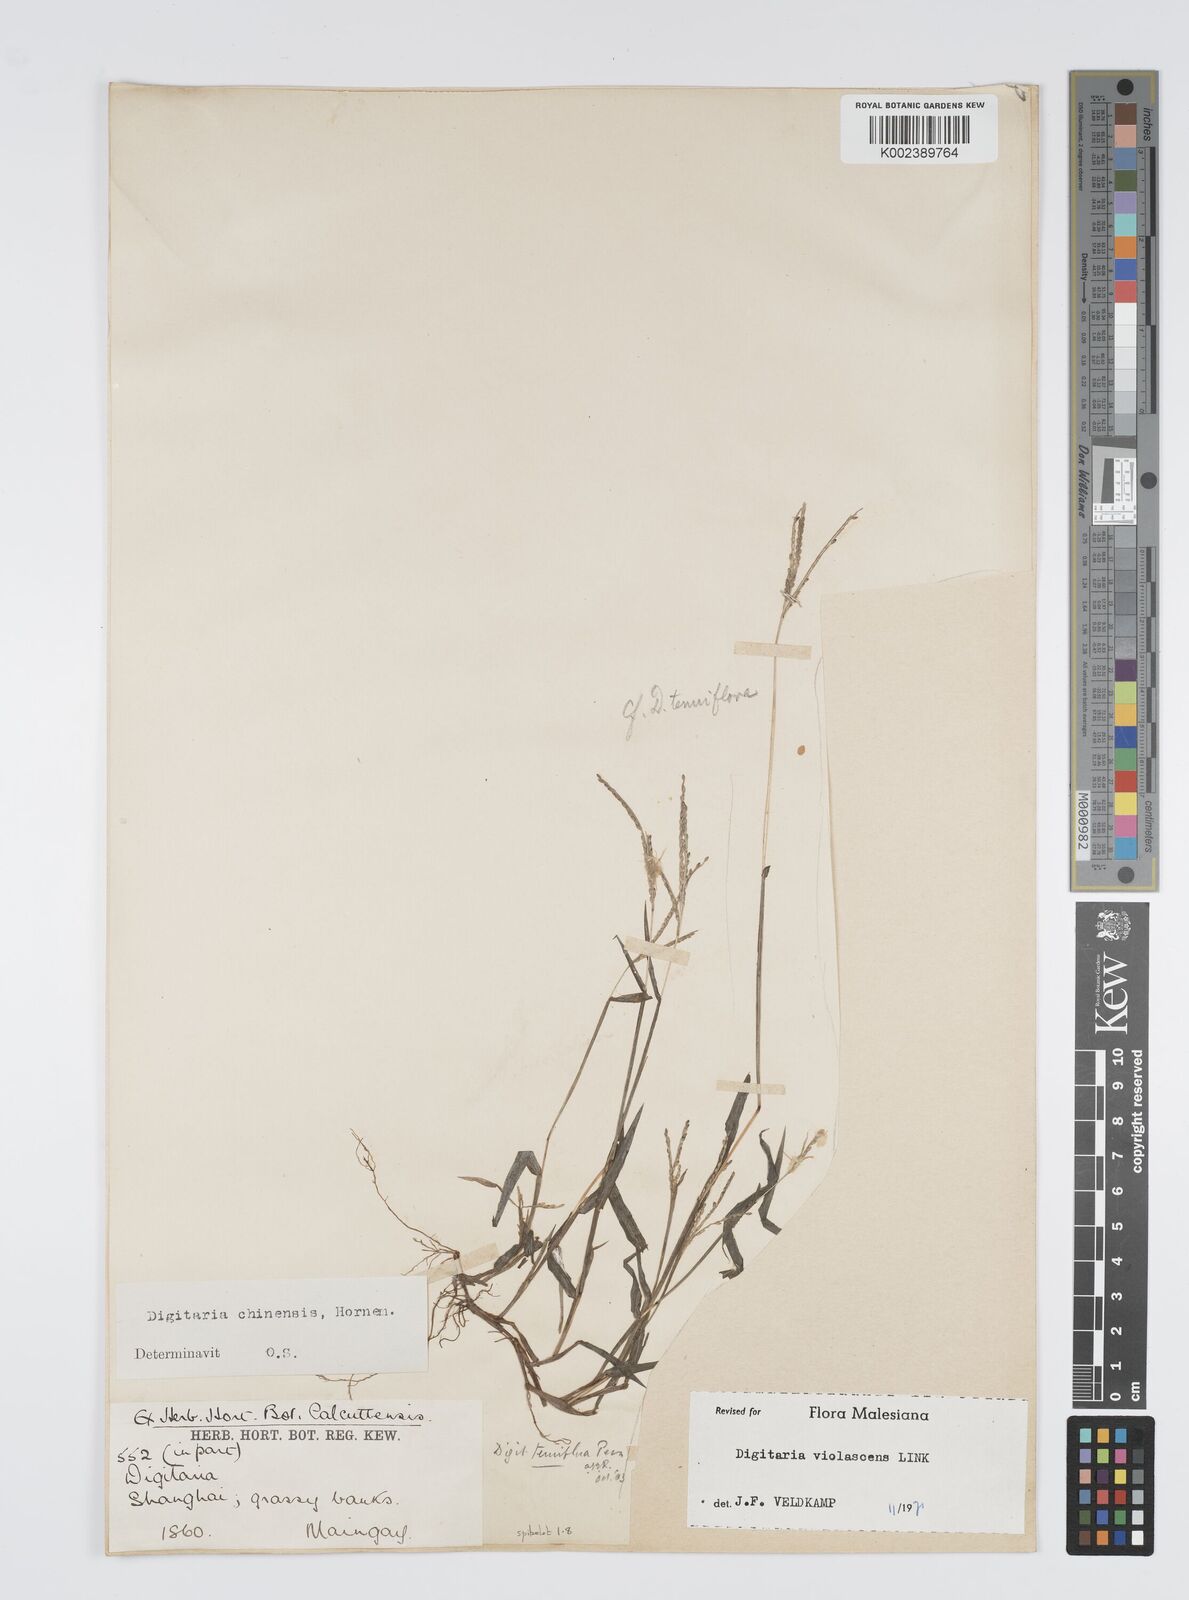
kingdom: Plantae
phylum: Tracheophyta
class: Liliopsida
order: Poales
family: Poaceae
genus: Digitaria
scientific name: Digitaria violascens
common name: Violet crabgrass
